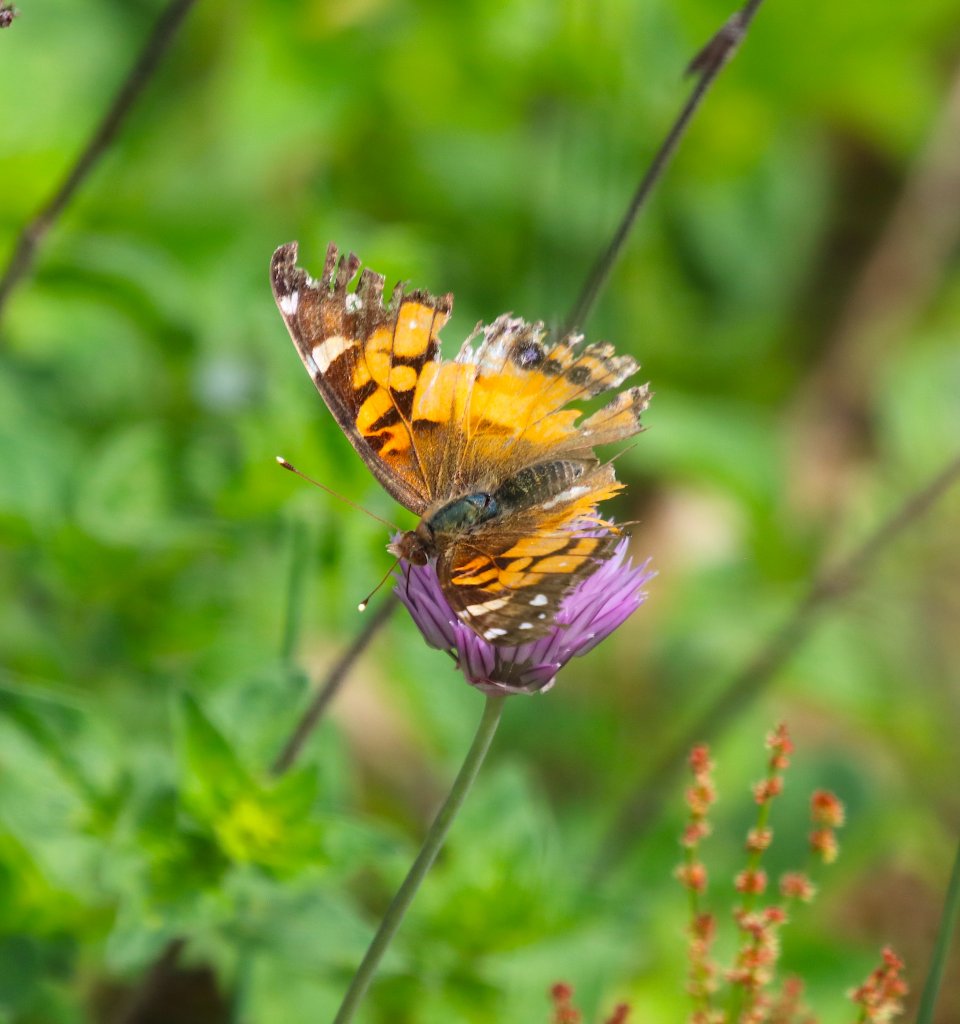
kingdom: Animalia
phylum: Arthropoda
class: Insecta
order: Lepidoptera
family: Nymphalidae
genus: Vanessa
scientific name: Vanessa virginiensis
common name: American Lady
